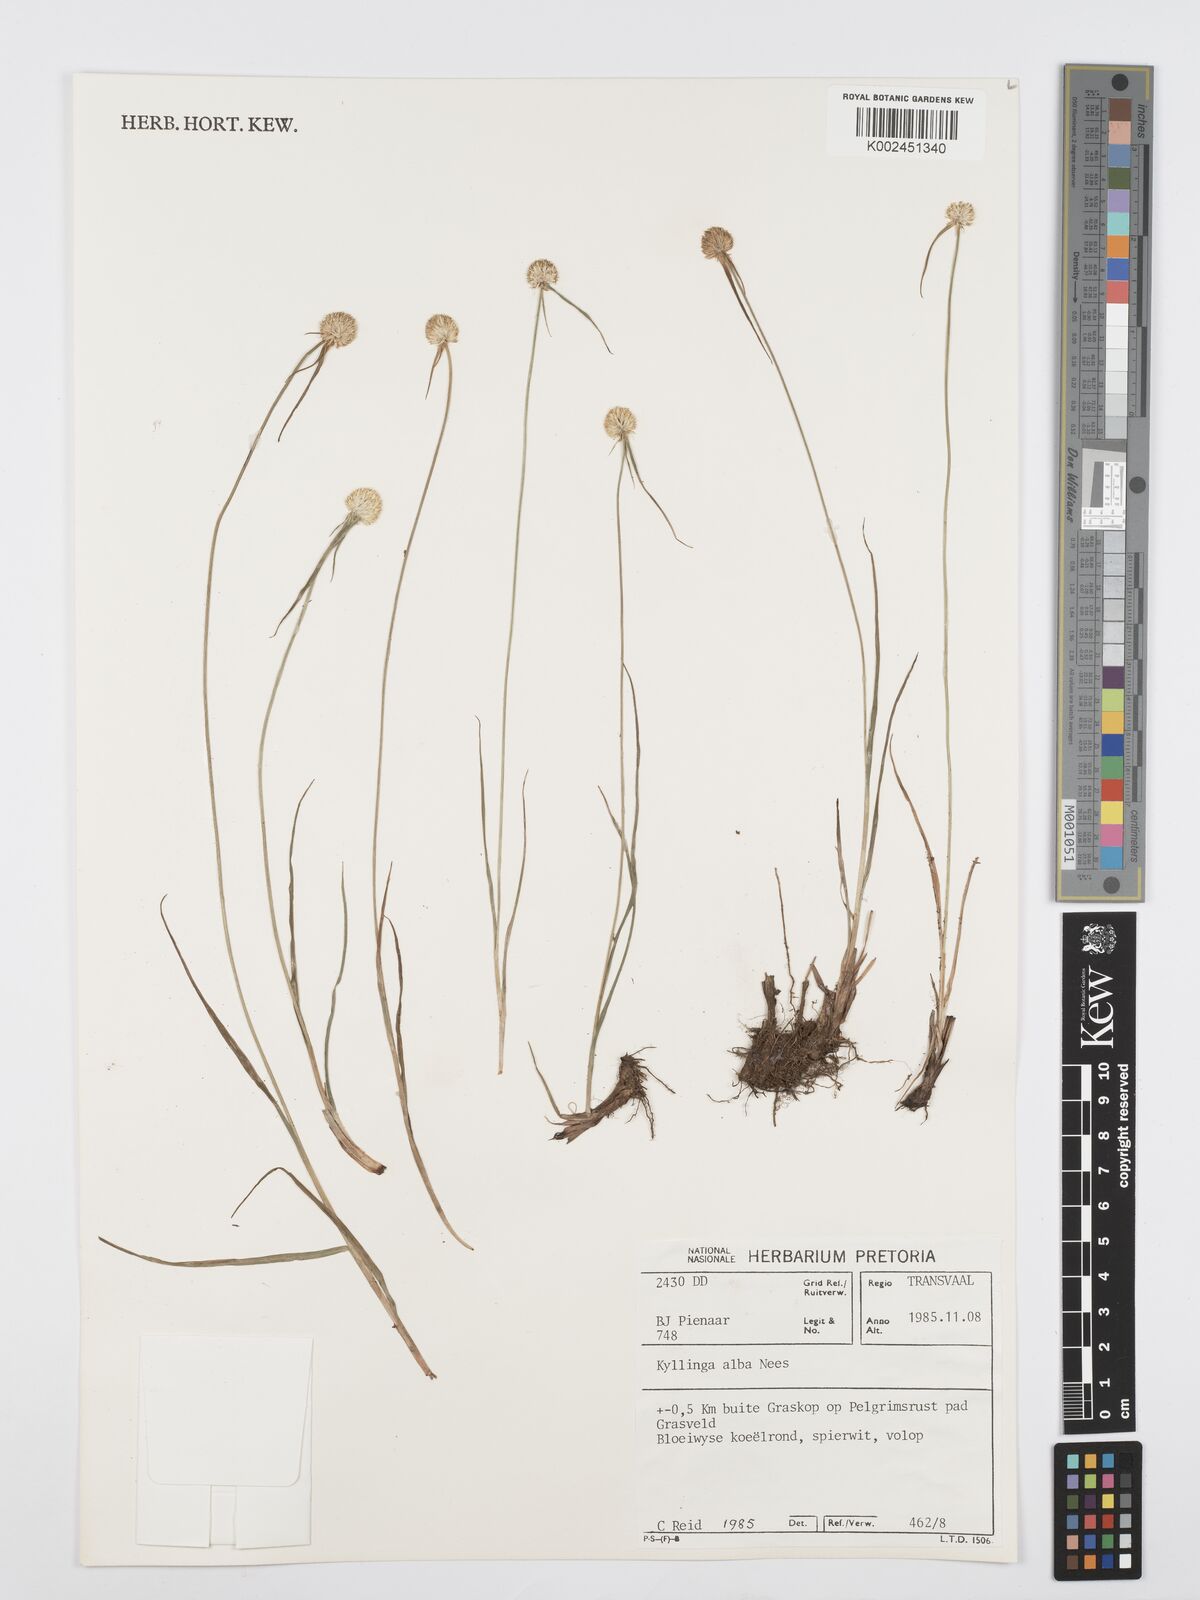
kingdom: Plantae
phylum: Tracheophyta
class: Liliopsida
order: Poales
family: Cyperaceae
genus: Cyperus
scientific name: Cyperus
